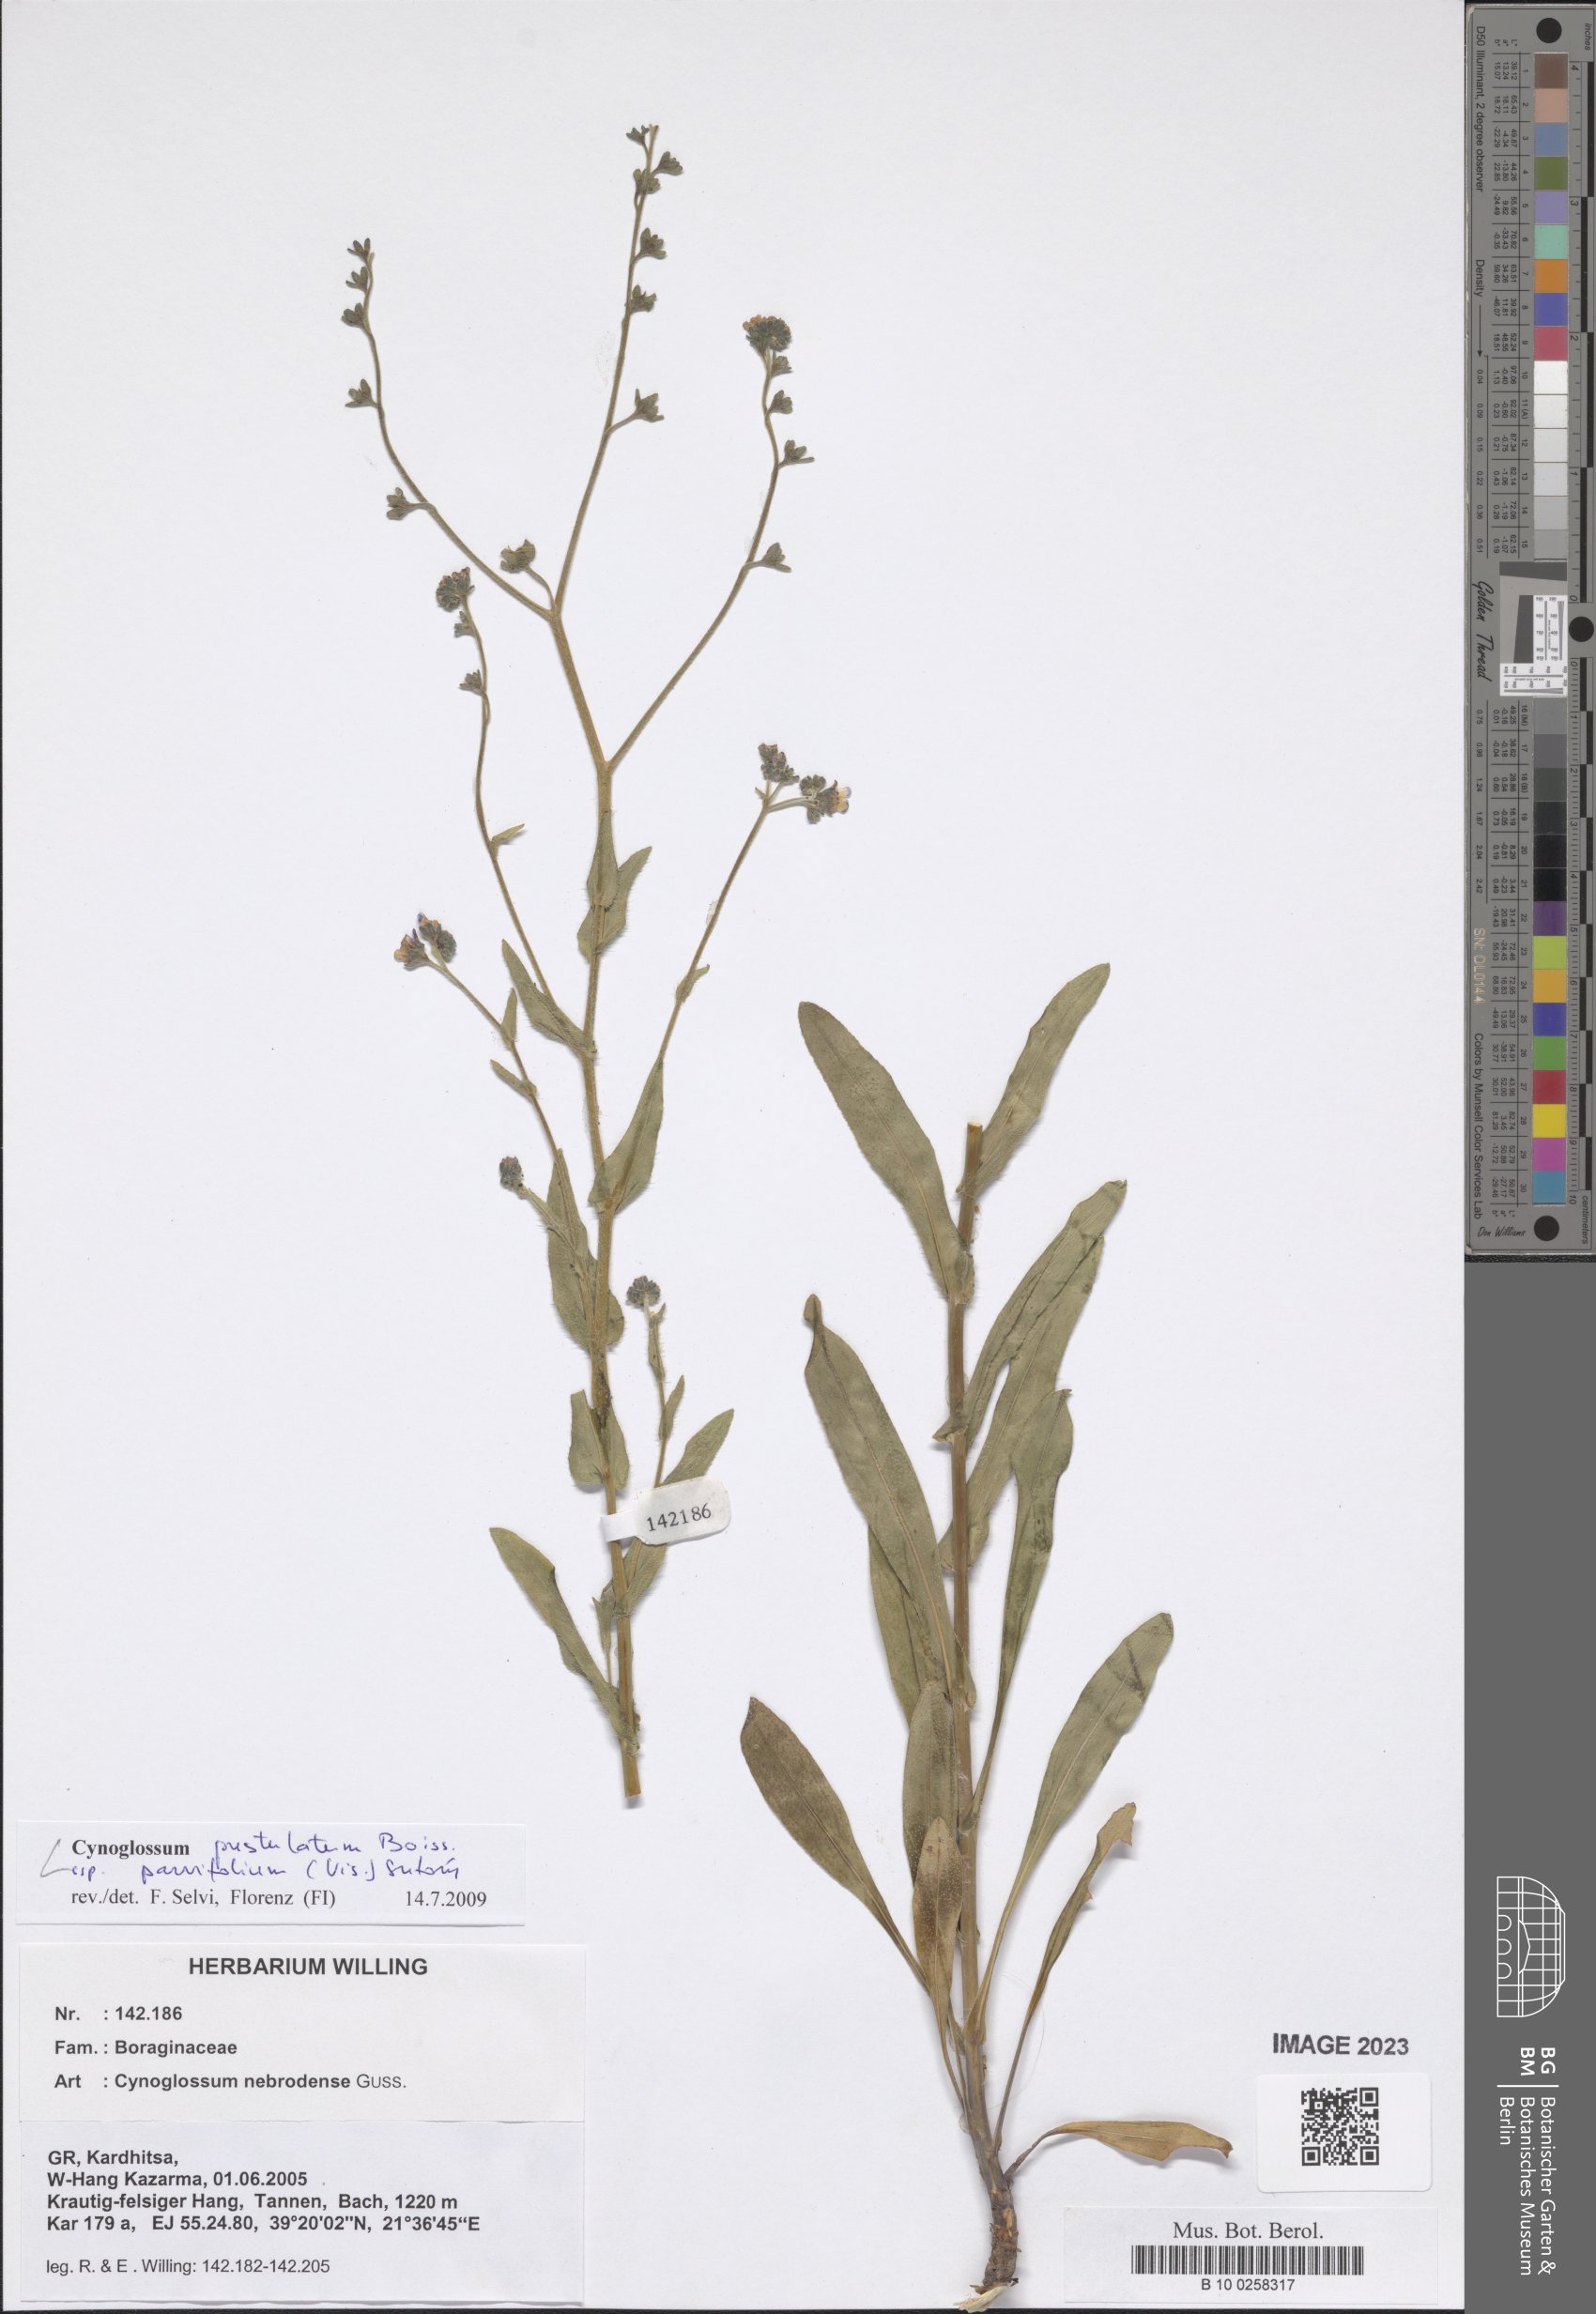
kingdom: Plantae
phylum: Tracheophyta
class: Magnoliopsida
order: Boraginales
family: Boraginaceae
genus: Cynoglossum
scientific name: Cynoglossum pustulatum
